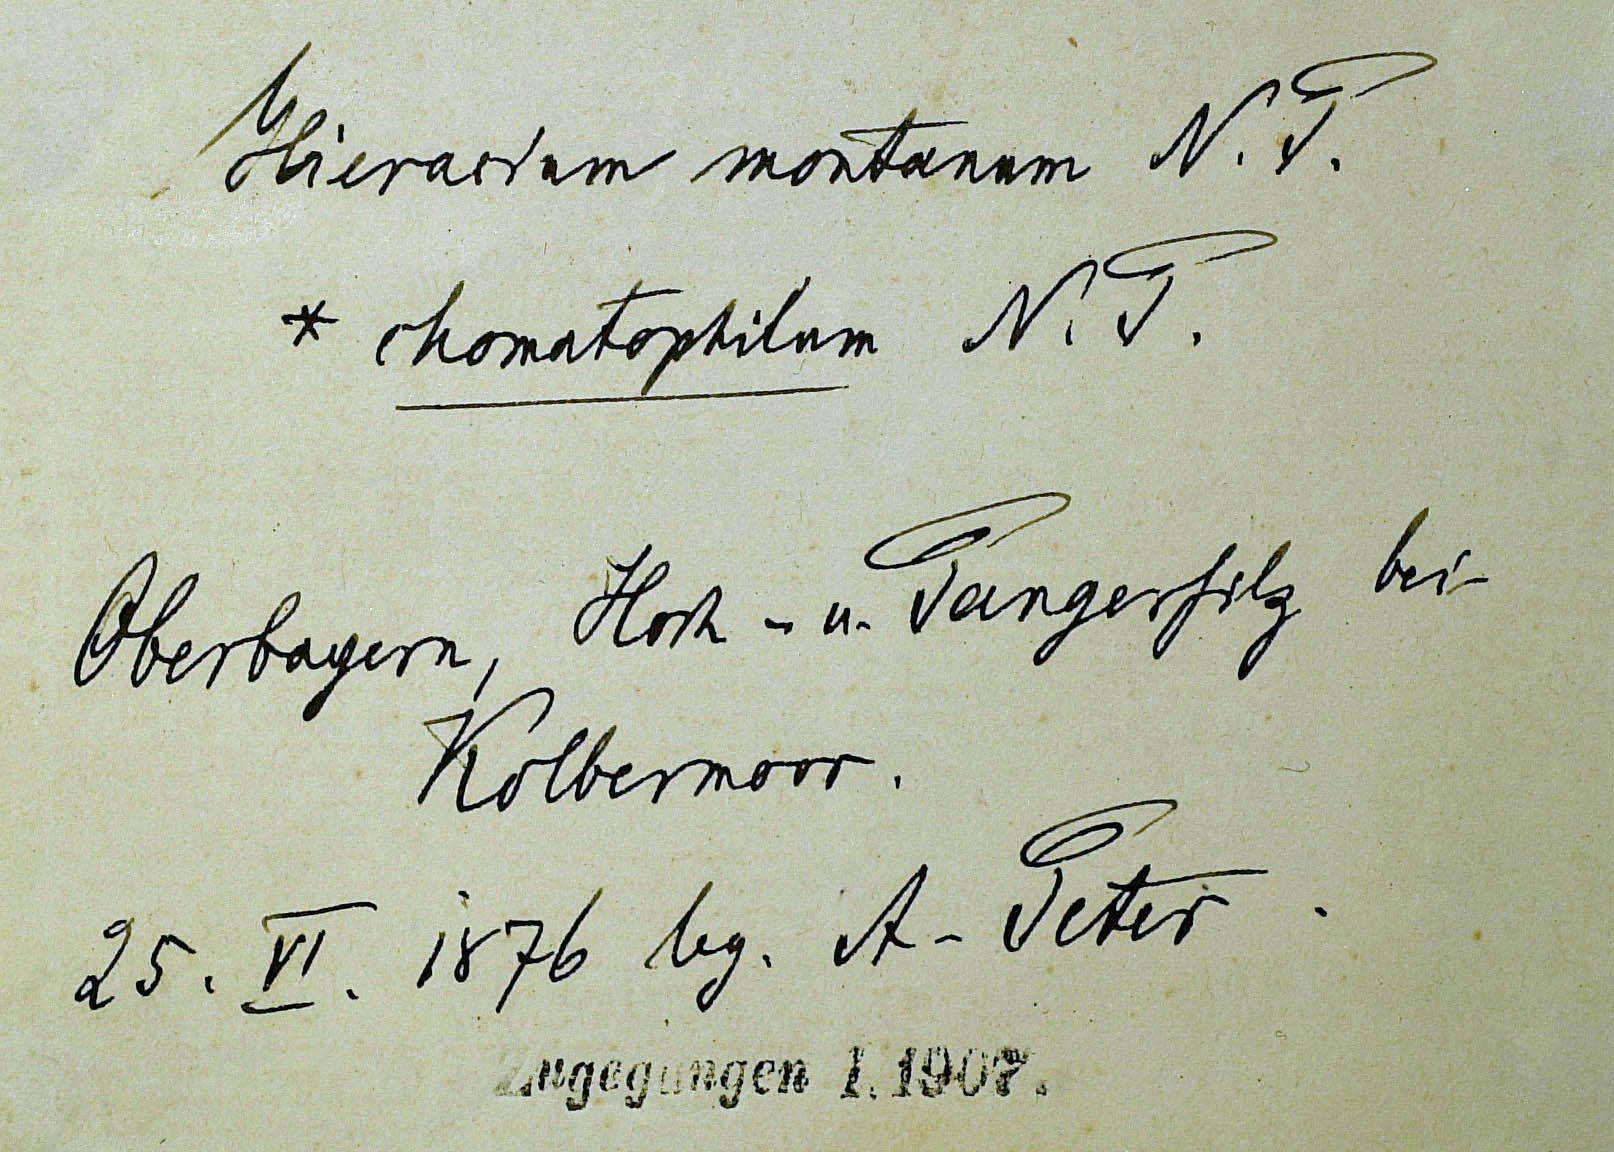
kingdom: Plantae
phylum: Tracheophyta
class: Magnoliopsida
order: Asterales
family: Asteraceae
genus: Pilosella
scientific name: Pilosella chomatophila
